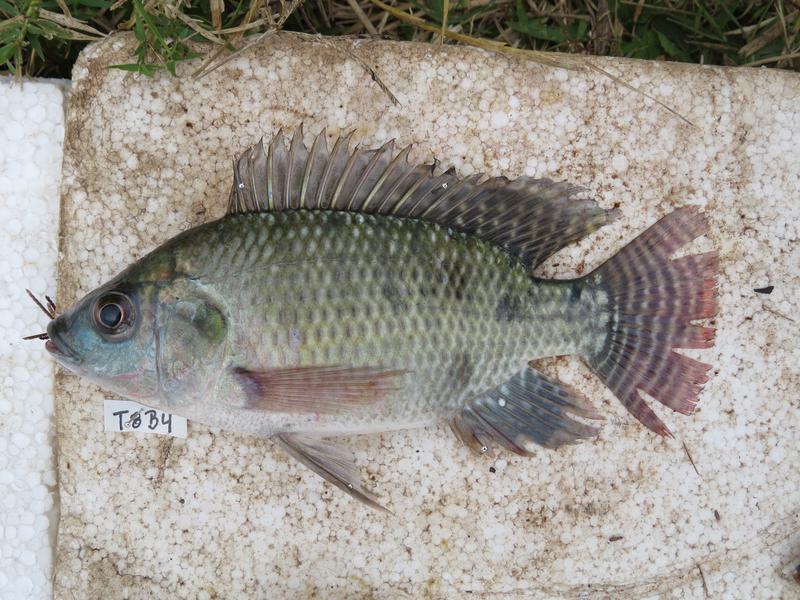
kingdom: Animalia
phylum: Chordata
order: Perciformes
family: Cichlidae
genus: Oreochromis
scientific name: Oreochromis niloticus
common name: Nile tilapia
